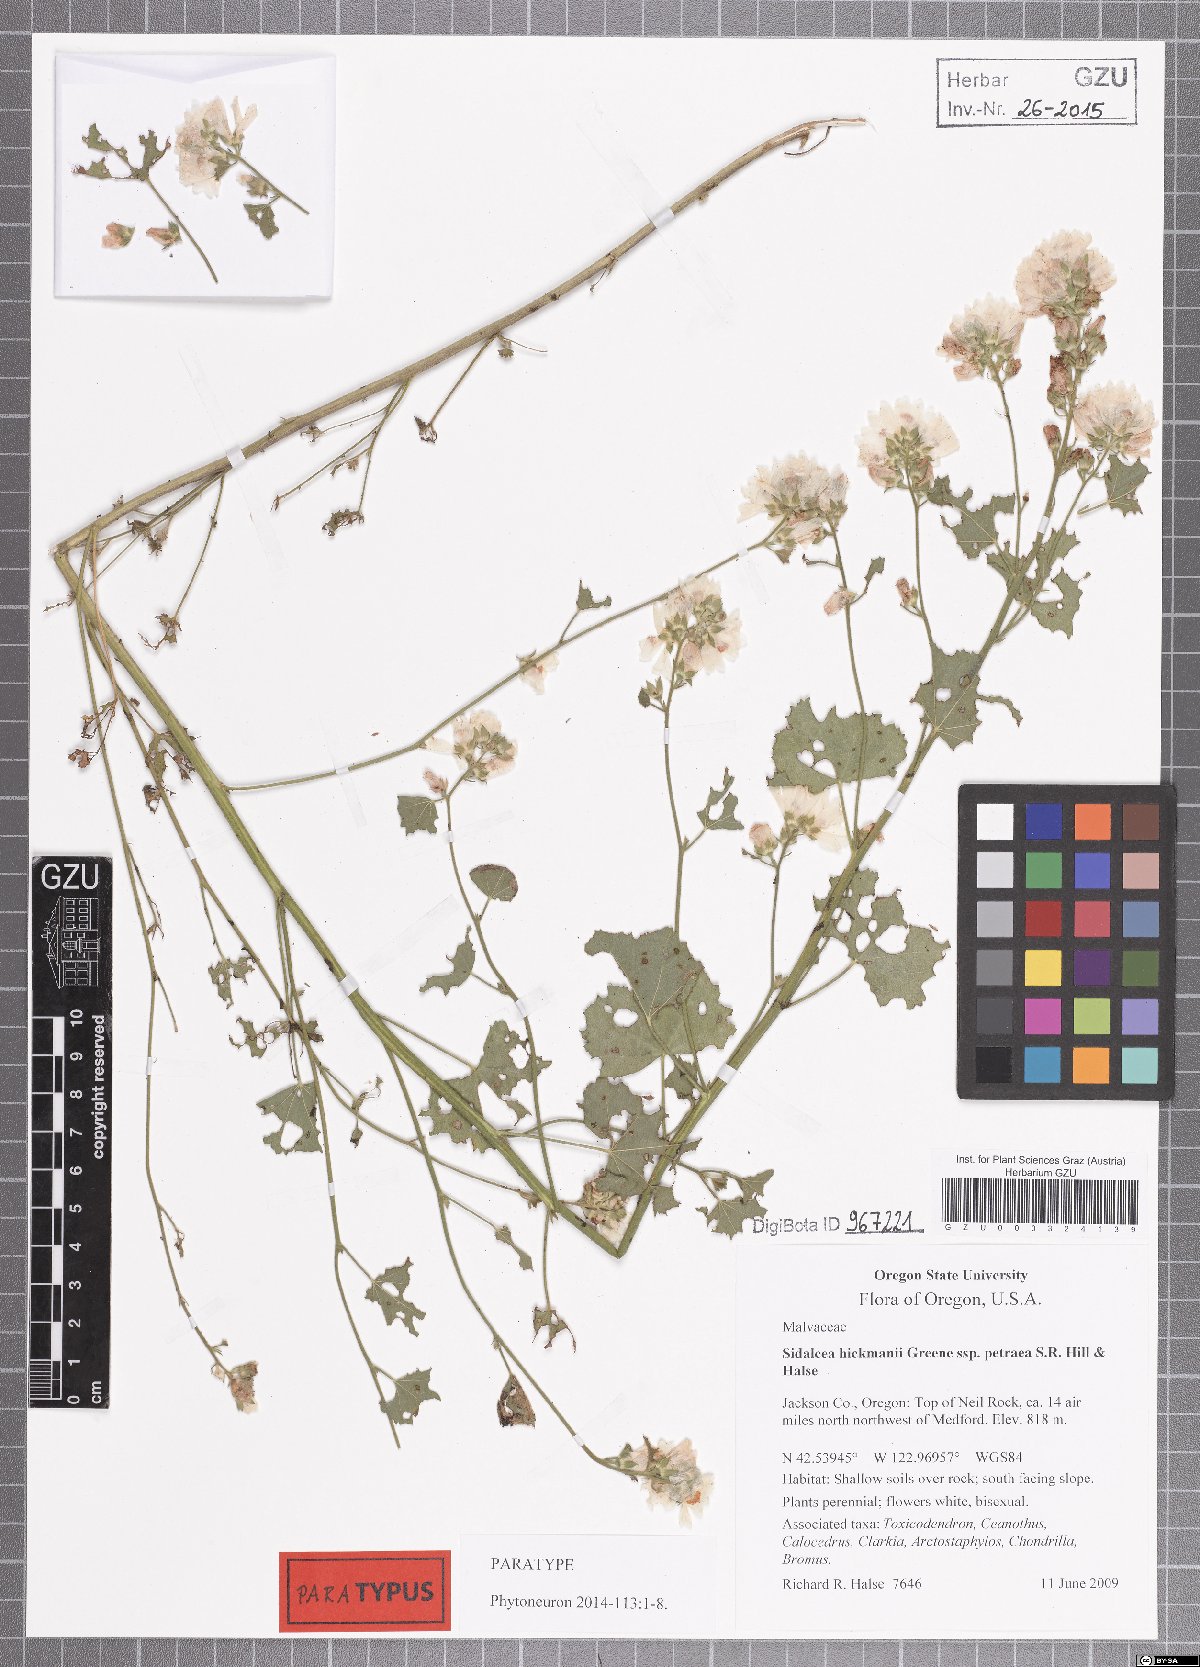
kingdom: Plantae
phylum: Tracheophyta
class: Magnoliopsida
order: Malvales
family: Malvaceae
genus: Sidalcea
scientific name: Sidalcea hickmanii
